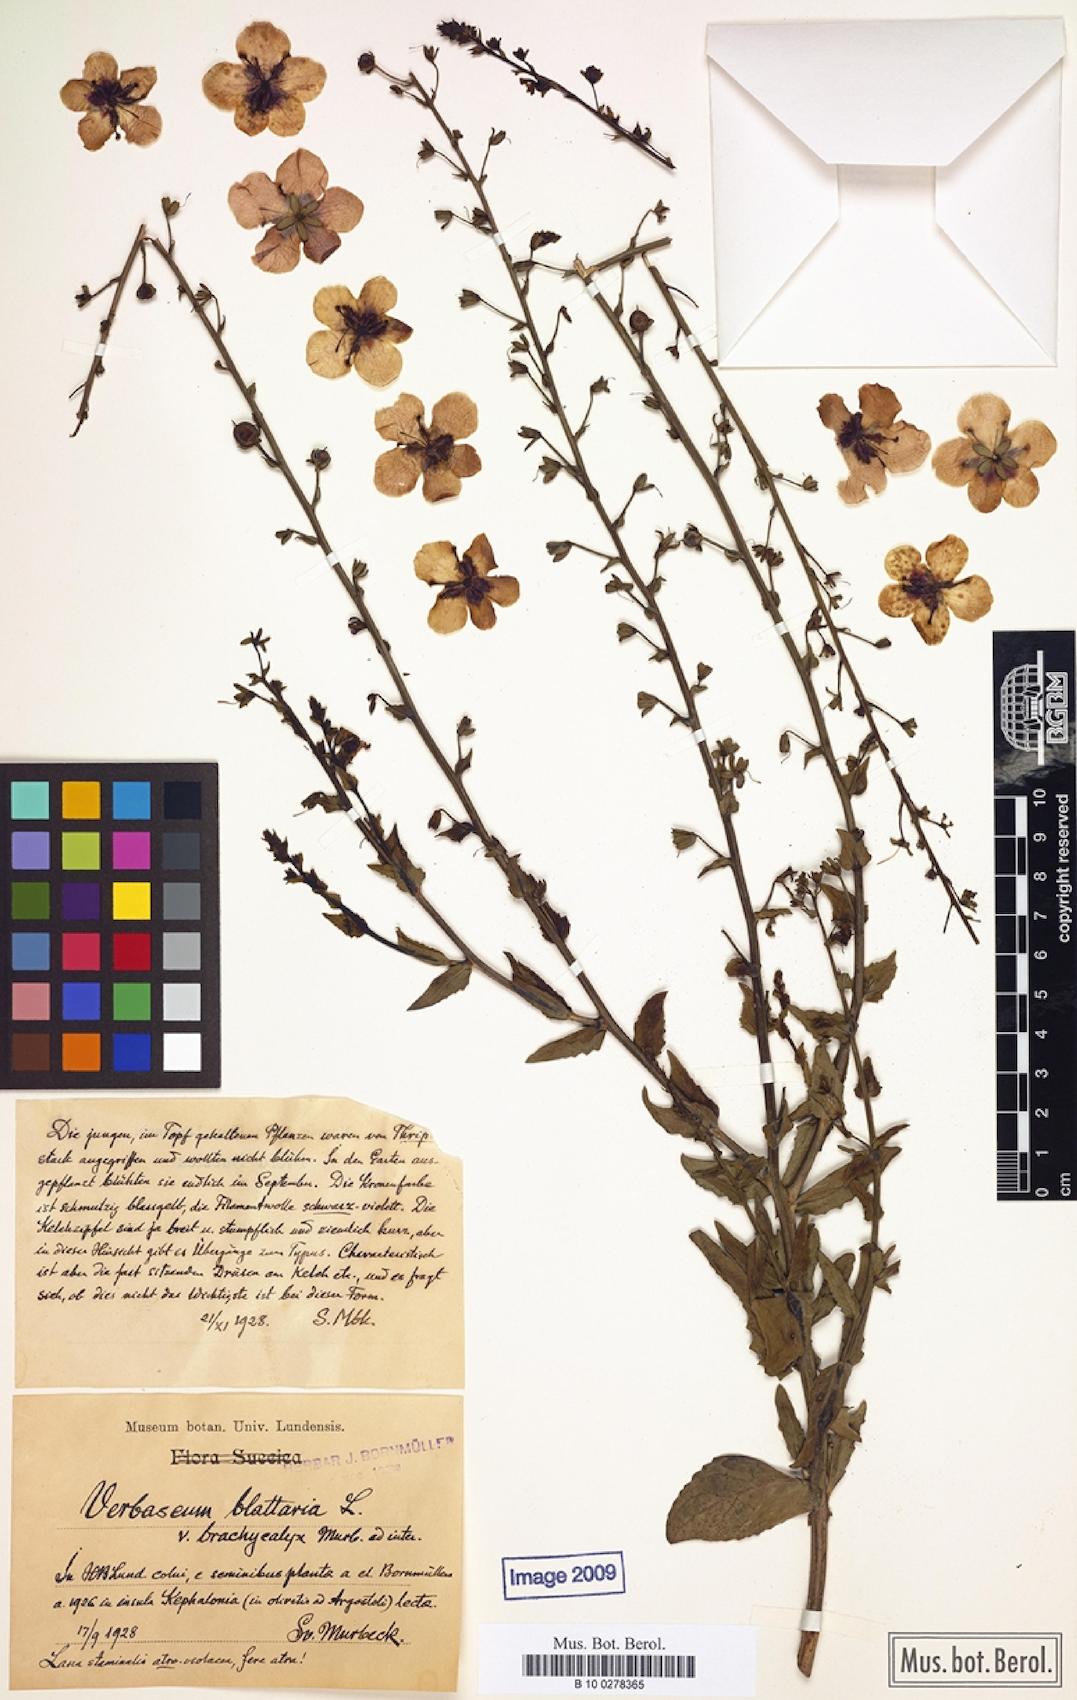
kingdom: Plantae
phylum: Tracheophyta
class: Magnoliopsida
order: Lamiales
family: Scrophulariaceae
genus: Verbascum
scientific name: Verbascum blattaria
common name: Moth mullein
